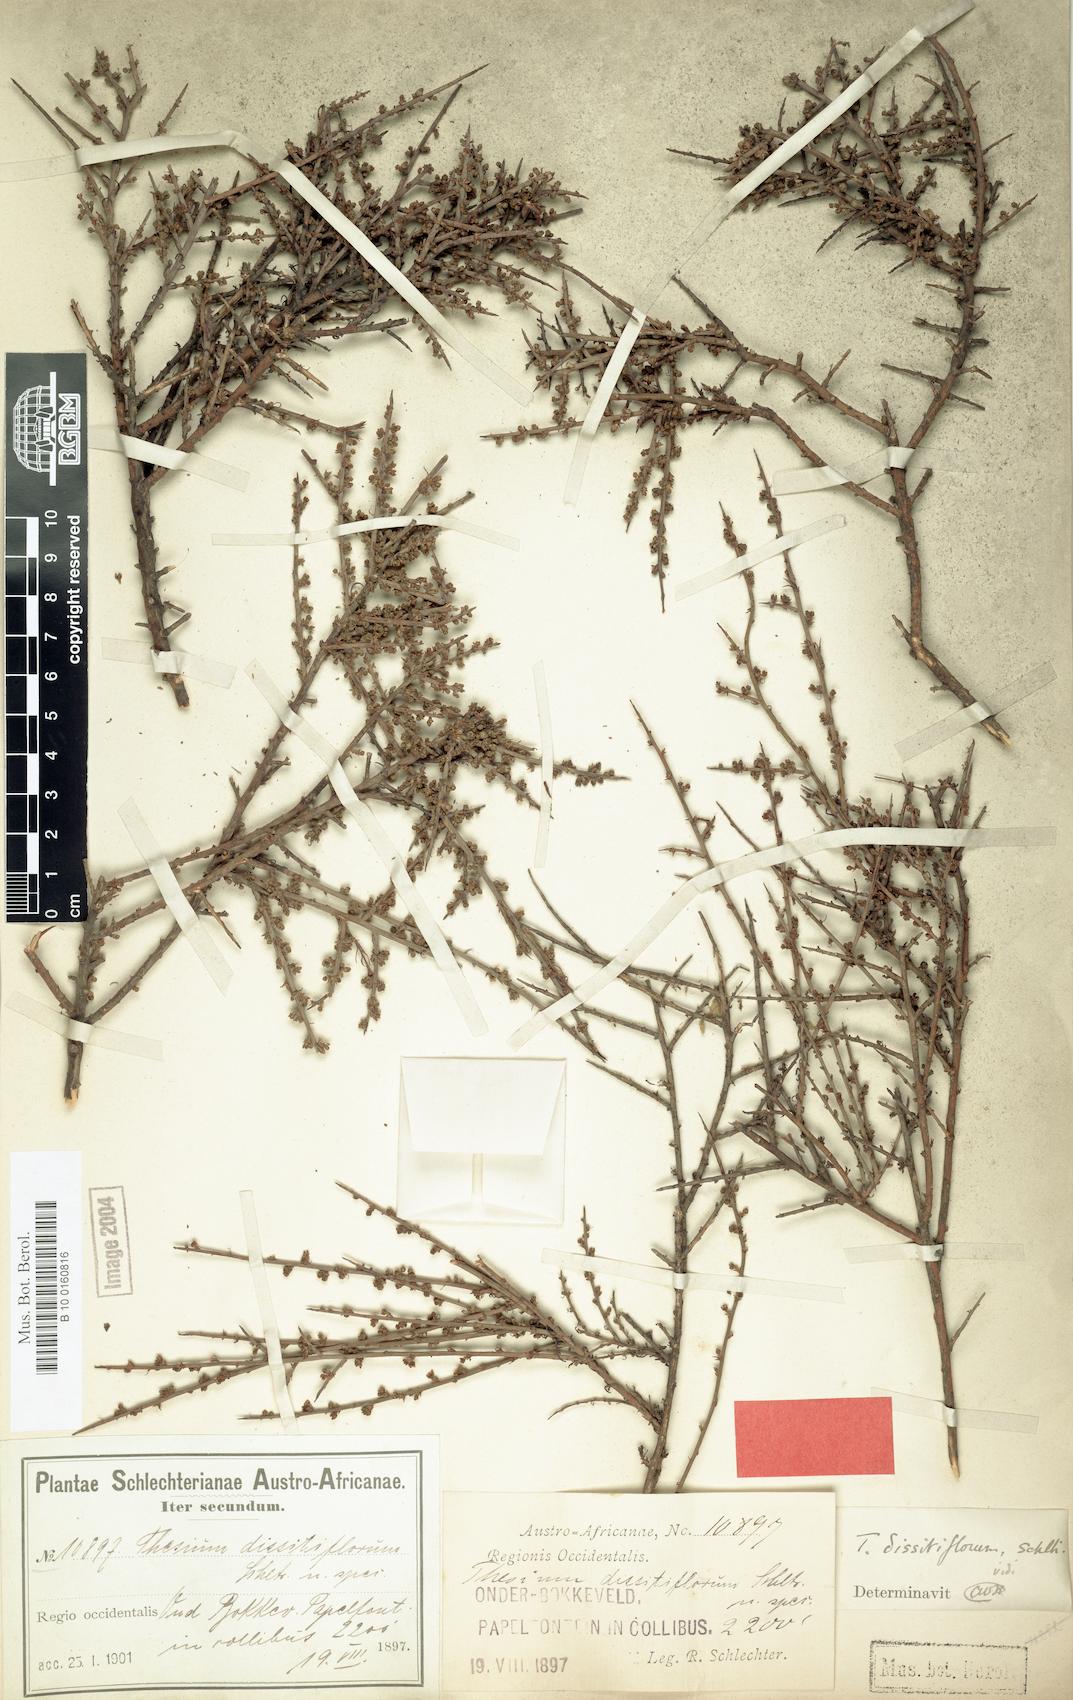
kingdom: Plantae
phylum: Tracheophyta
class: Magnoliopsida
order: Santalales
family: Thesiaceae
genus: Thesium
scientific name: Thesium dissitiflorum
